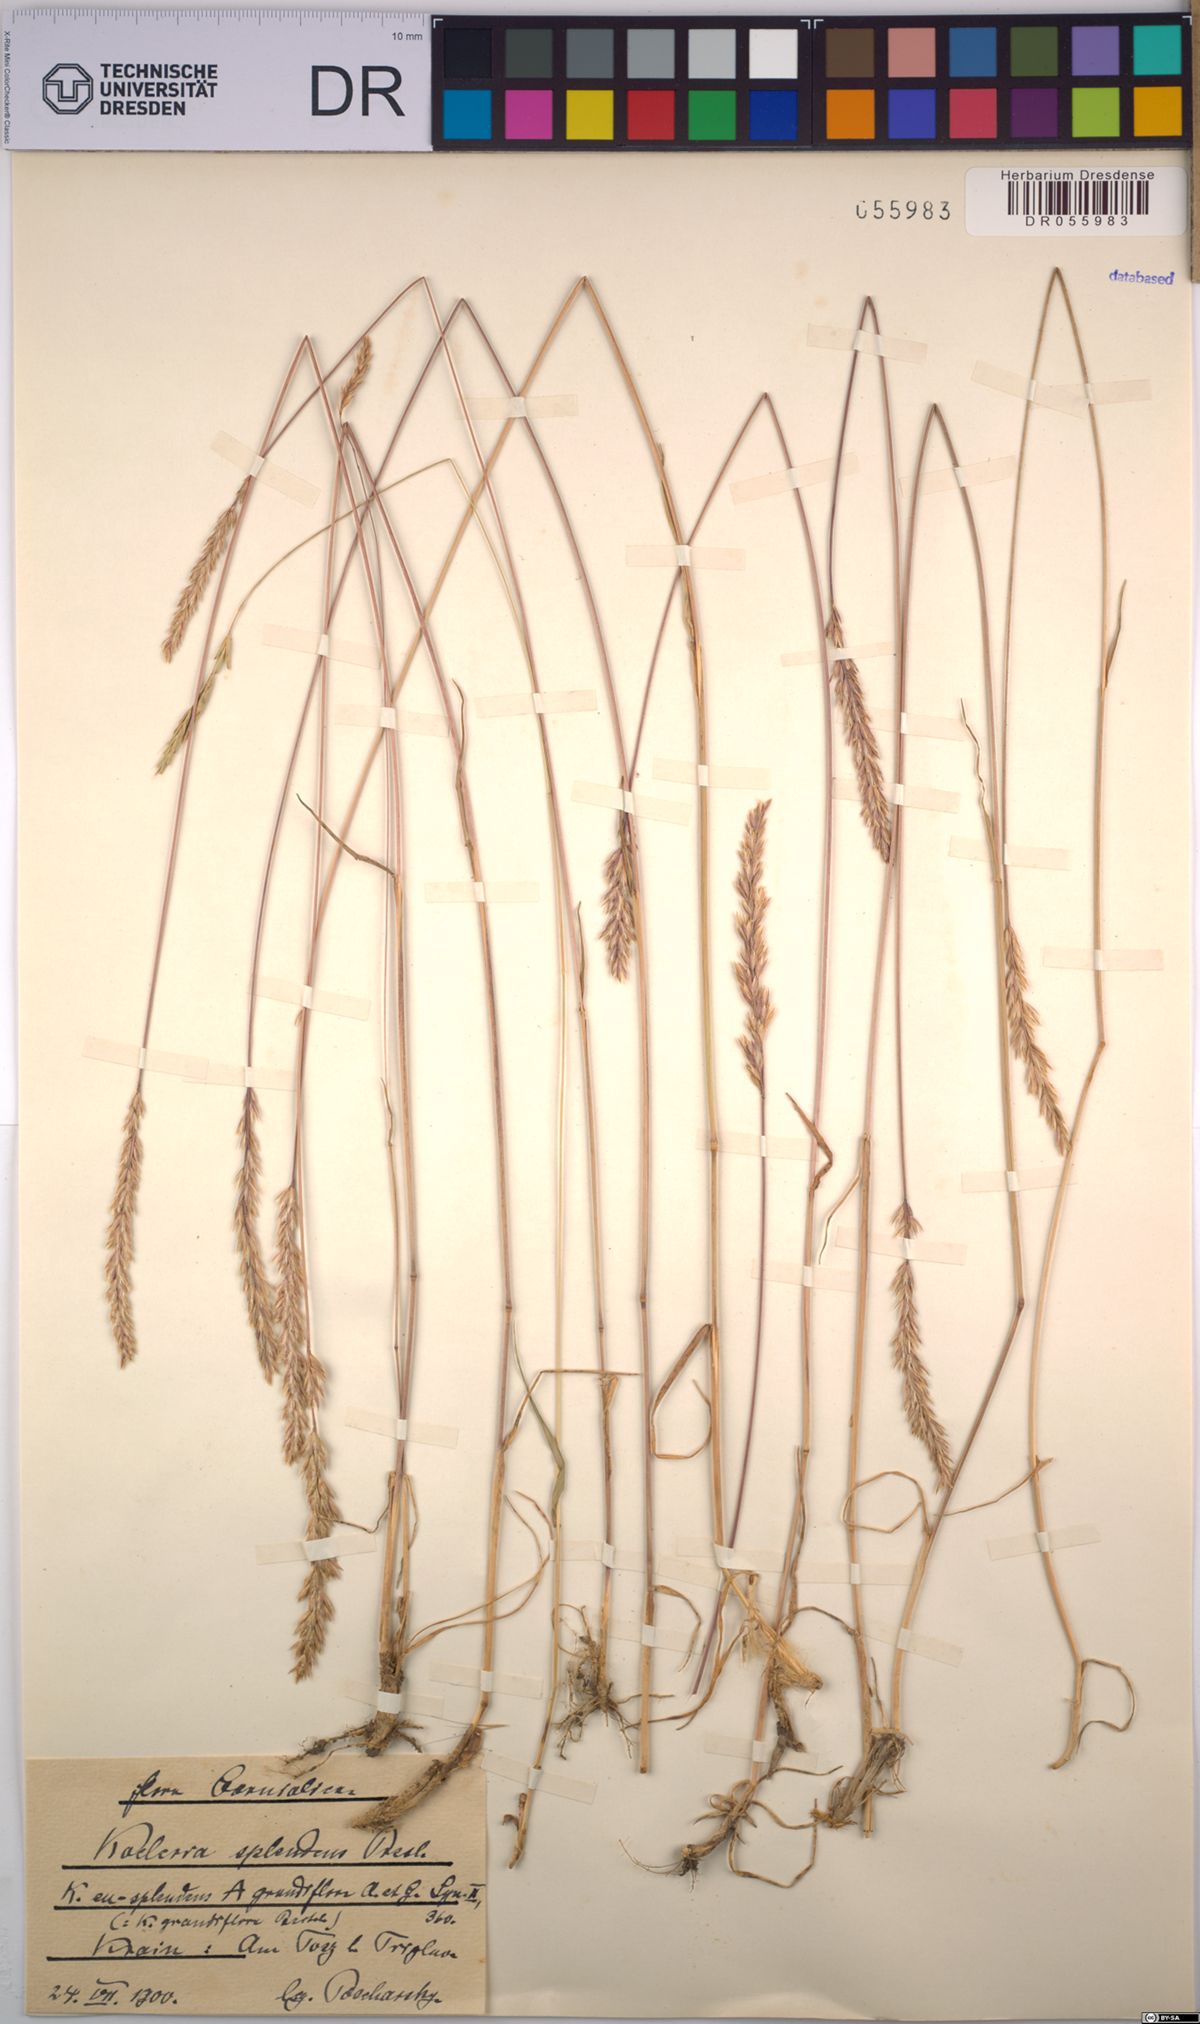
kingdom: Plantae
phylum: Tracheophyta
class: Liliopsida
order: Poales
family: Poaceae
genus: Koeleria
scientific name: Koeleria splendens
